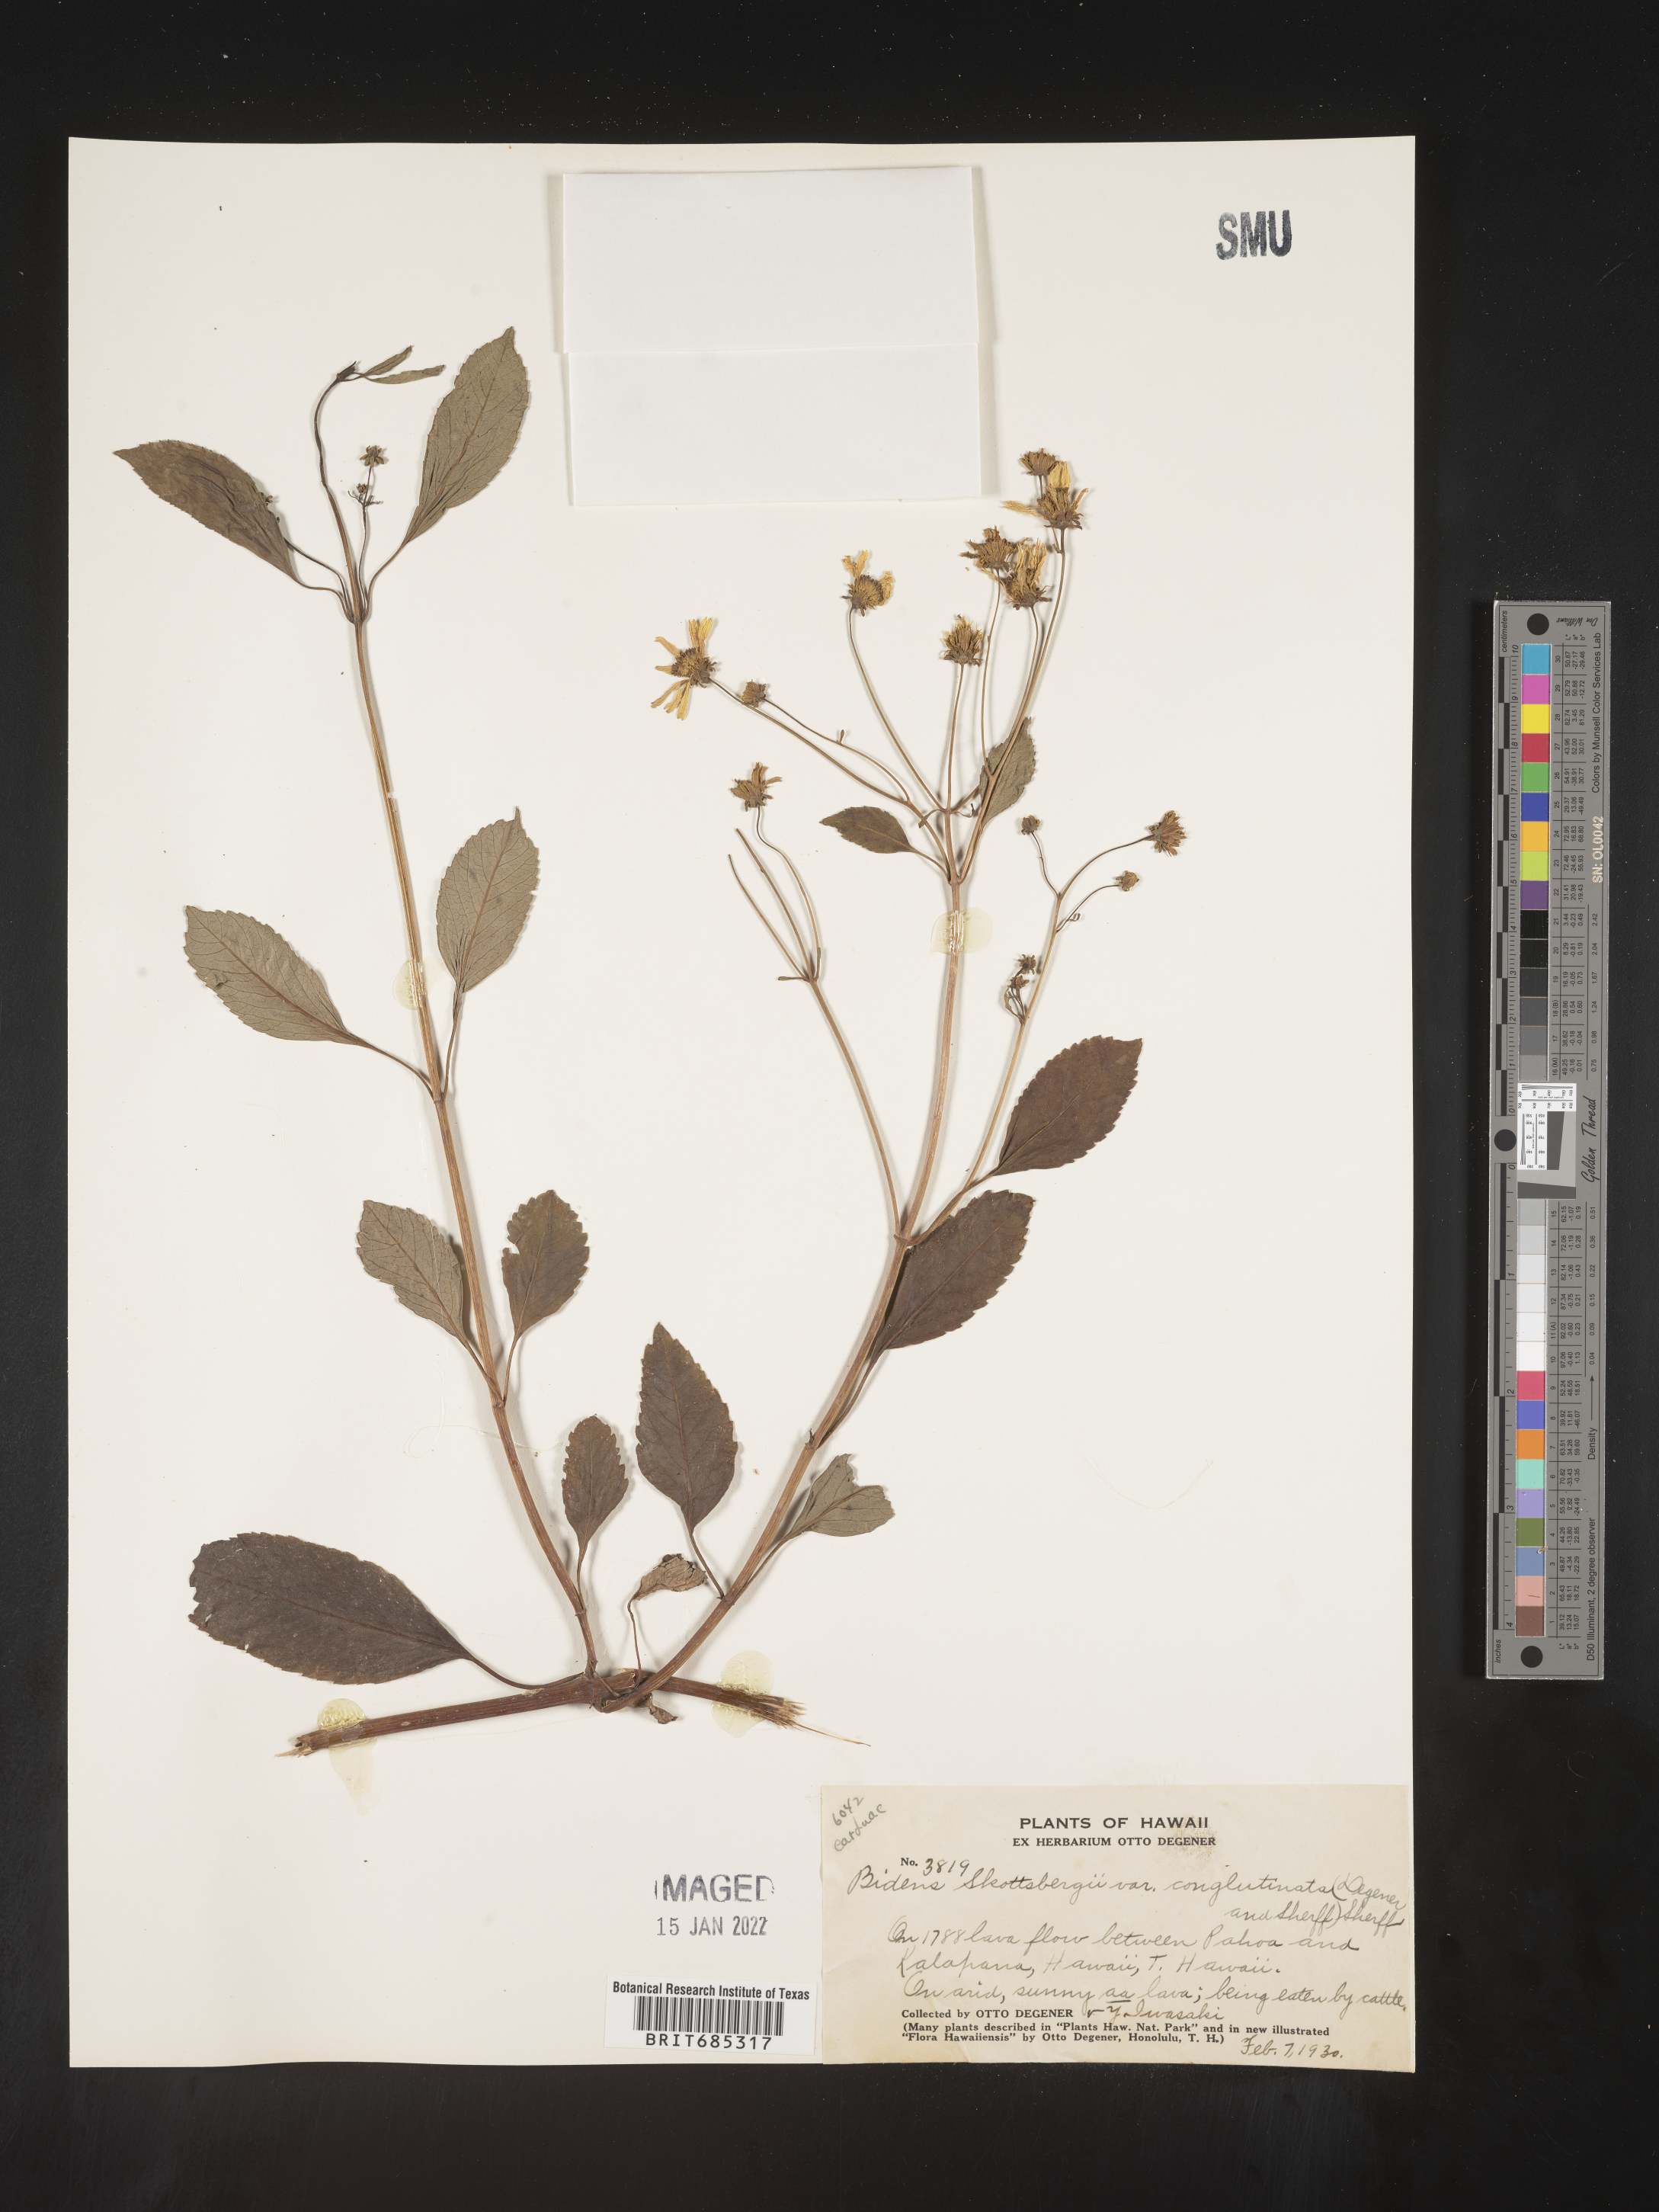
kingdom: Plantae
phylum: Tracheophyta
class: Magnoliopsida
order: Asterales
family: Asteraceae
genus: Bidens
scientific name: Bidens
